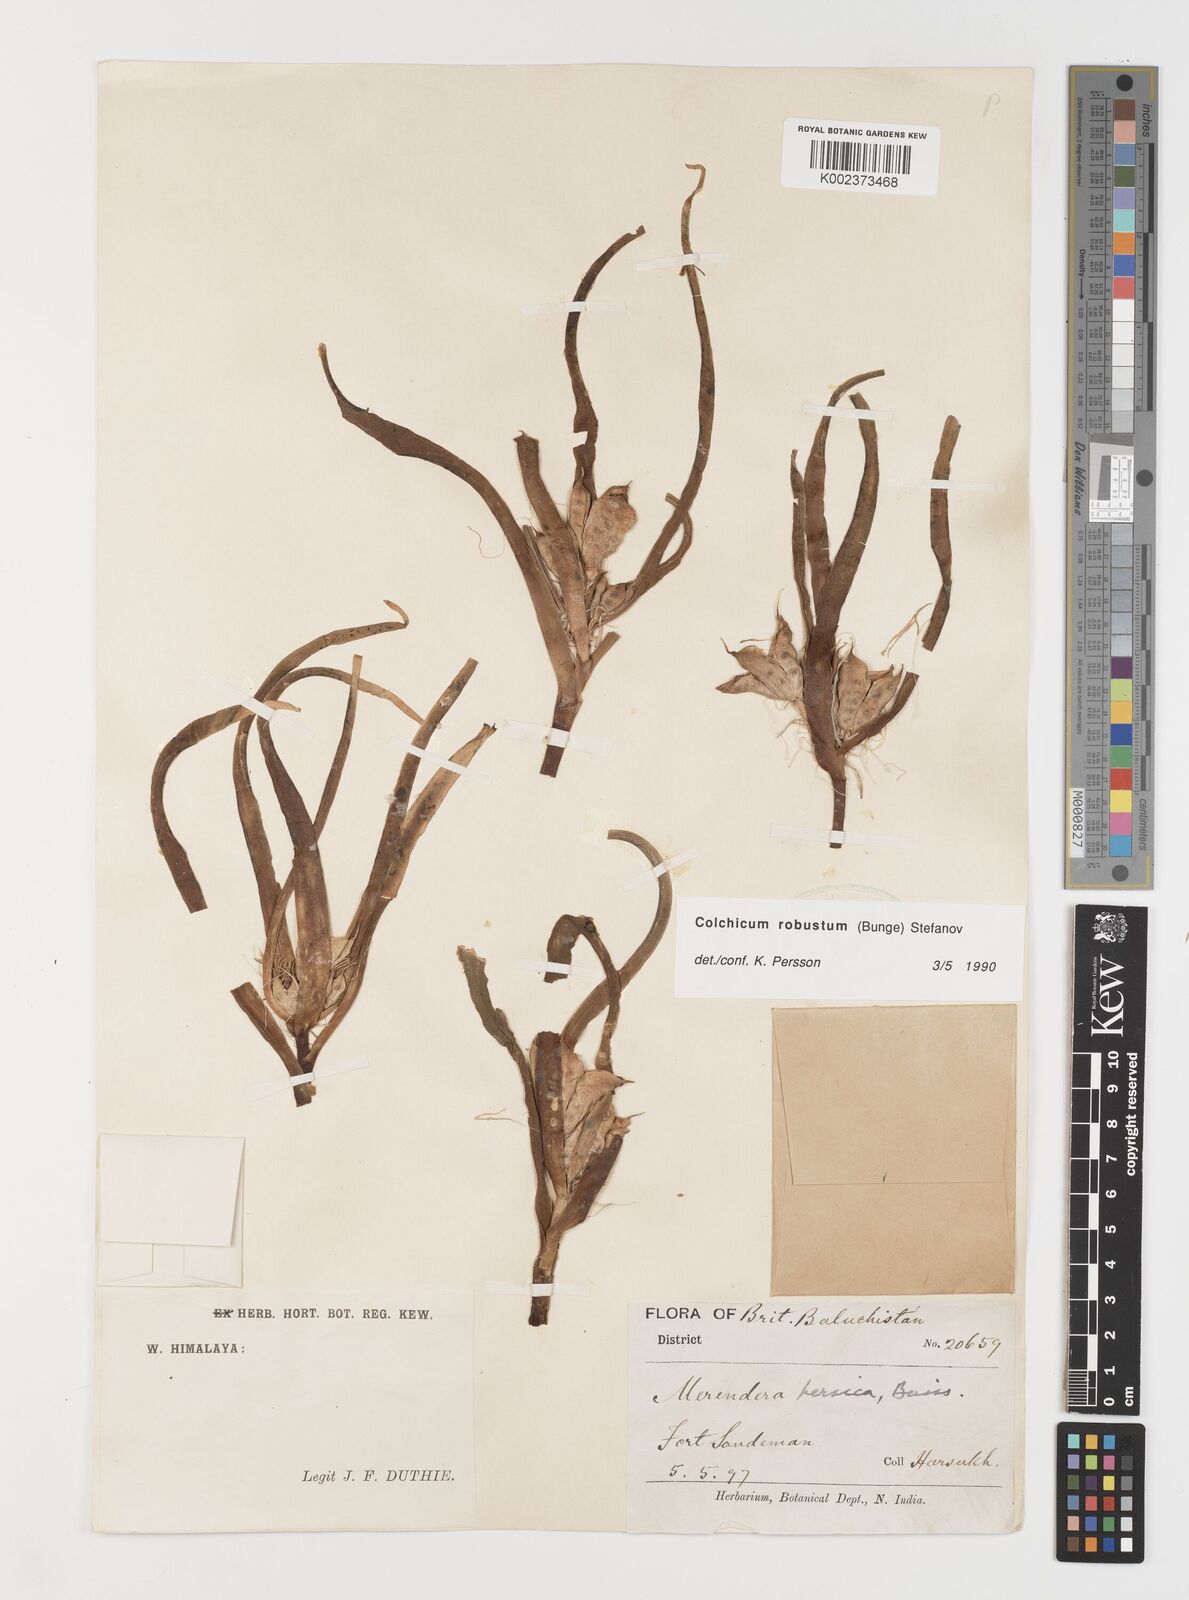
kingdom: Plantae
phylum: Tracheophyta
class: Liliopsida
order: Liliales
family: Colchicaceae
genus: Colchicum
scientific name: Colchicum robustum
